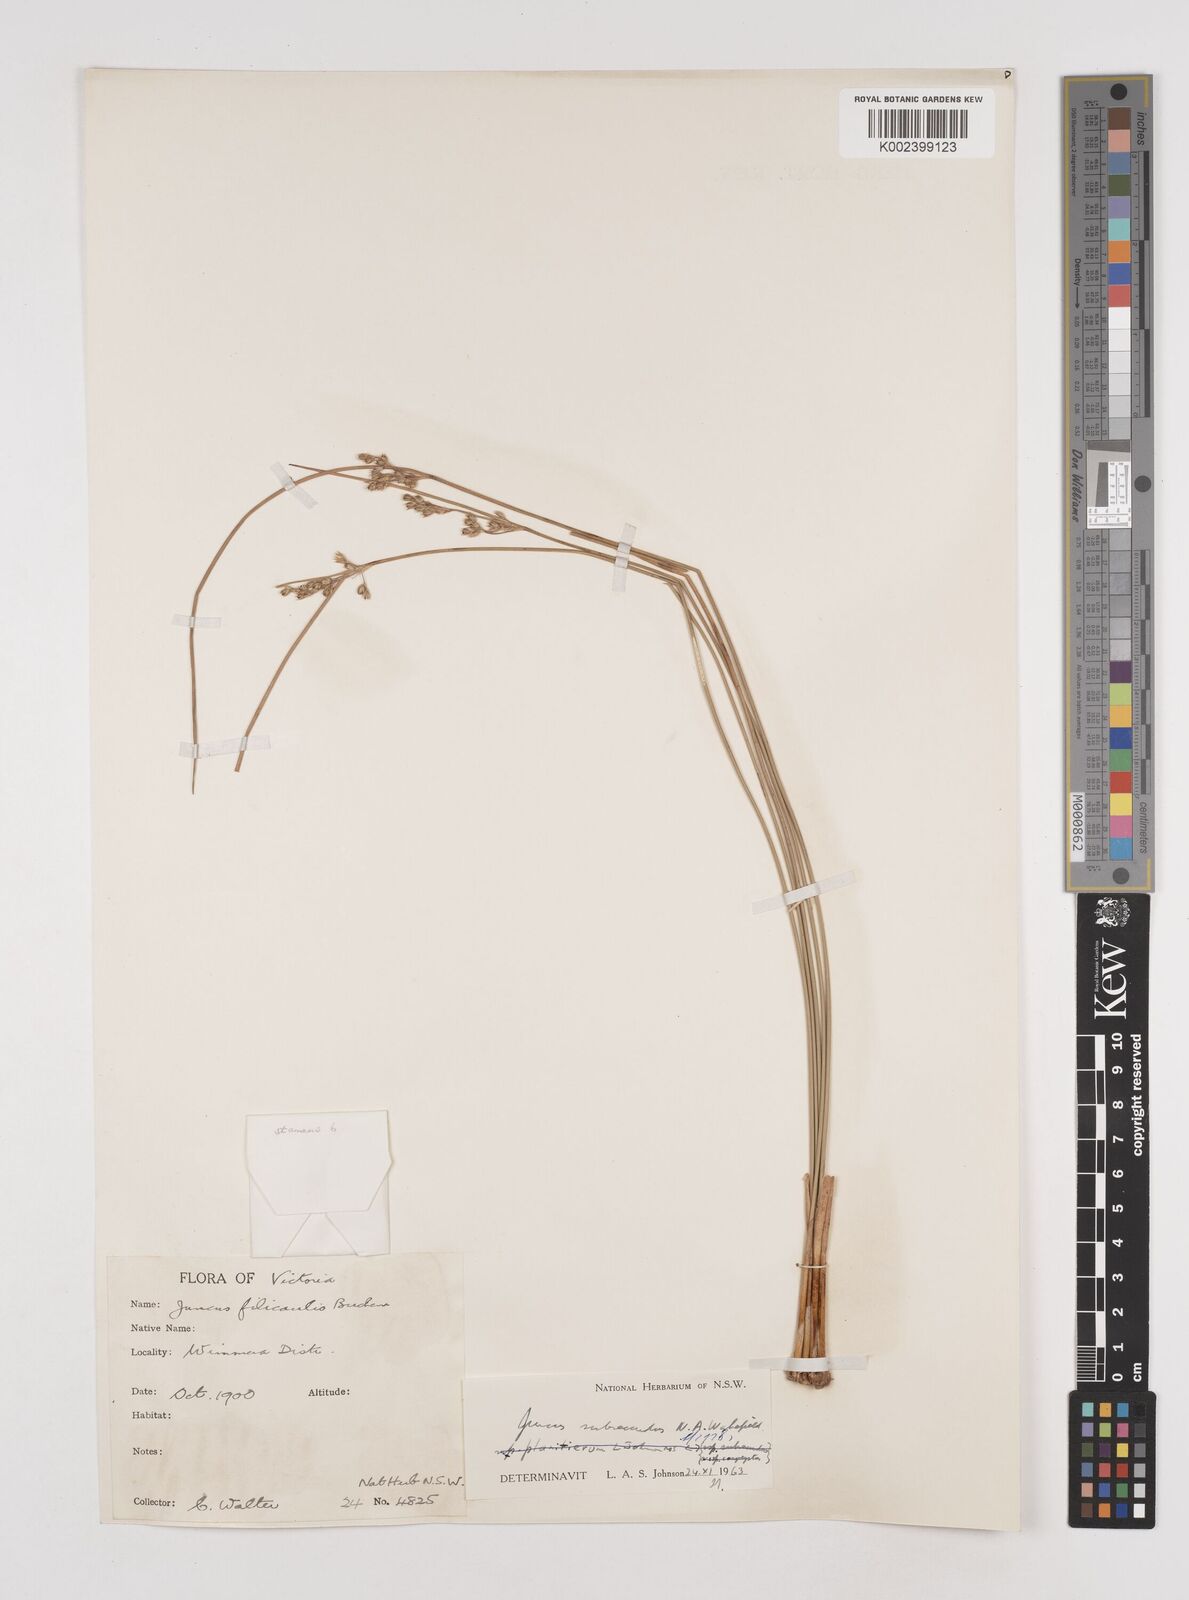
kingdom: Plantae
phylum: Tracheophyta
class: Liliopsida
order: Poales
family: Juncaceae
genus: Juncus
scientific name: Juncus subsecundus
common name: Fingered rush
